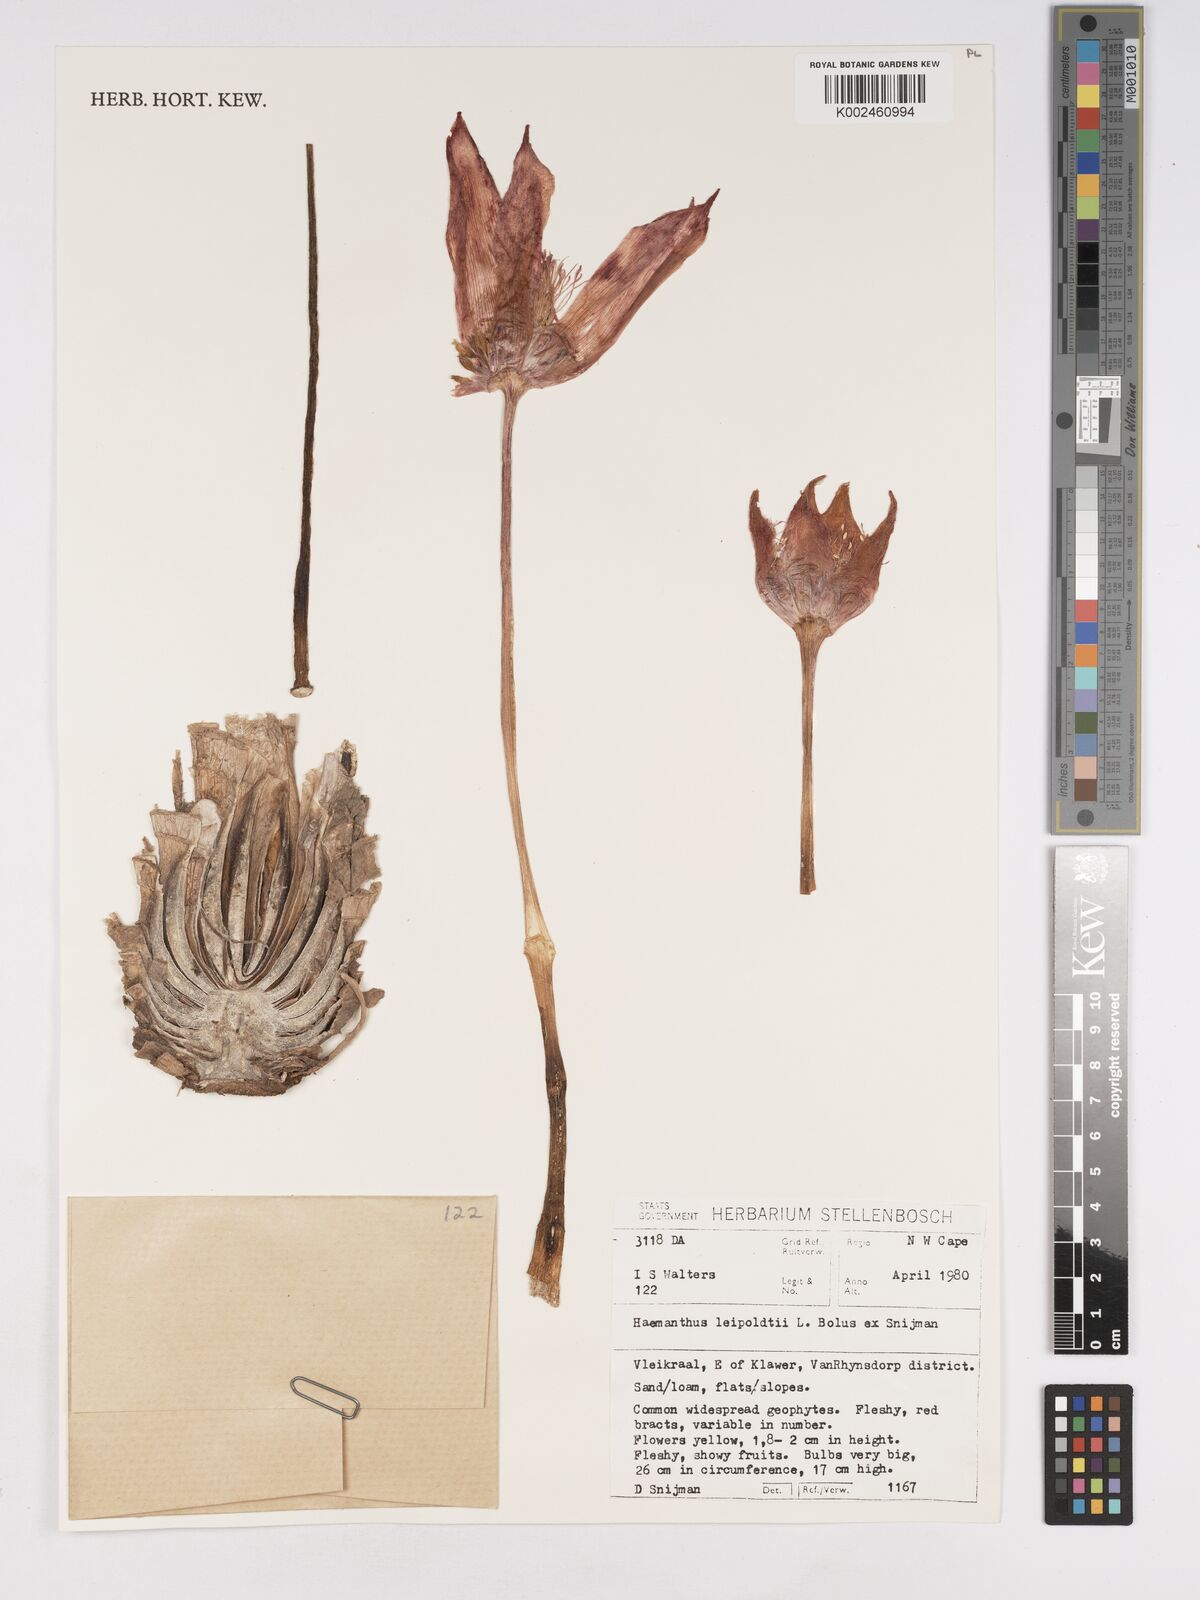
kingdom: Plantae
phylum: Tracheophyta
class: Liliopsida
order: Asparagales
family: Amaryllidaceae
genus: Haemanthus
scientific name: Haemanthus pubescens
